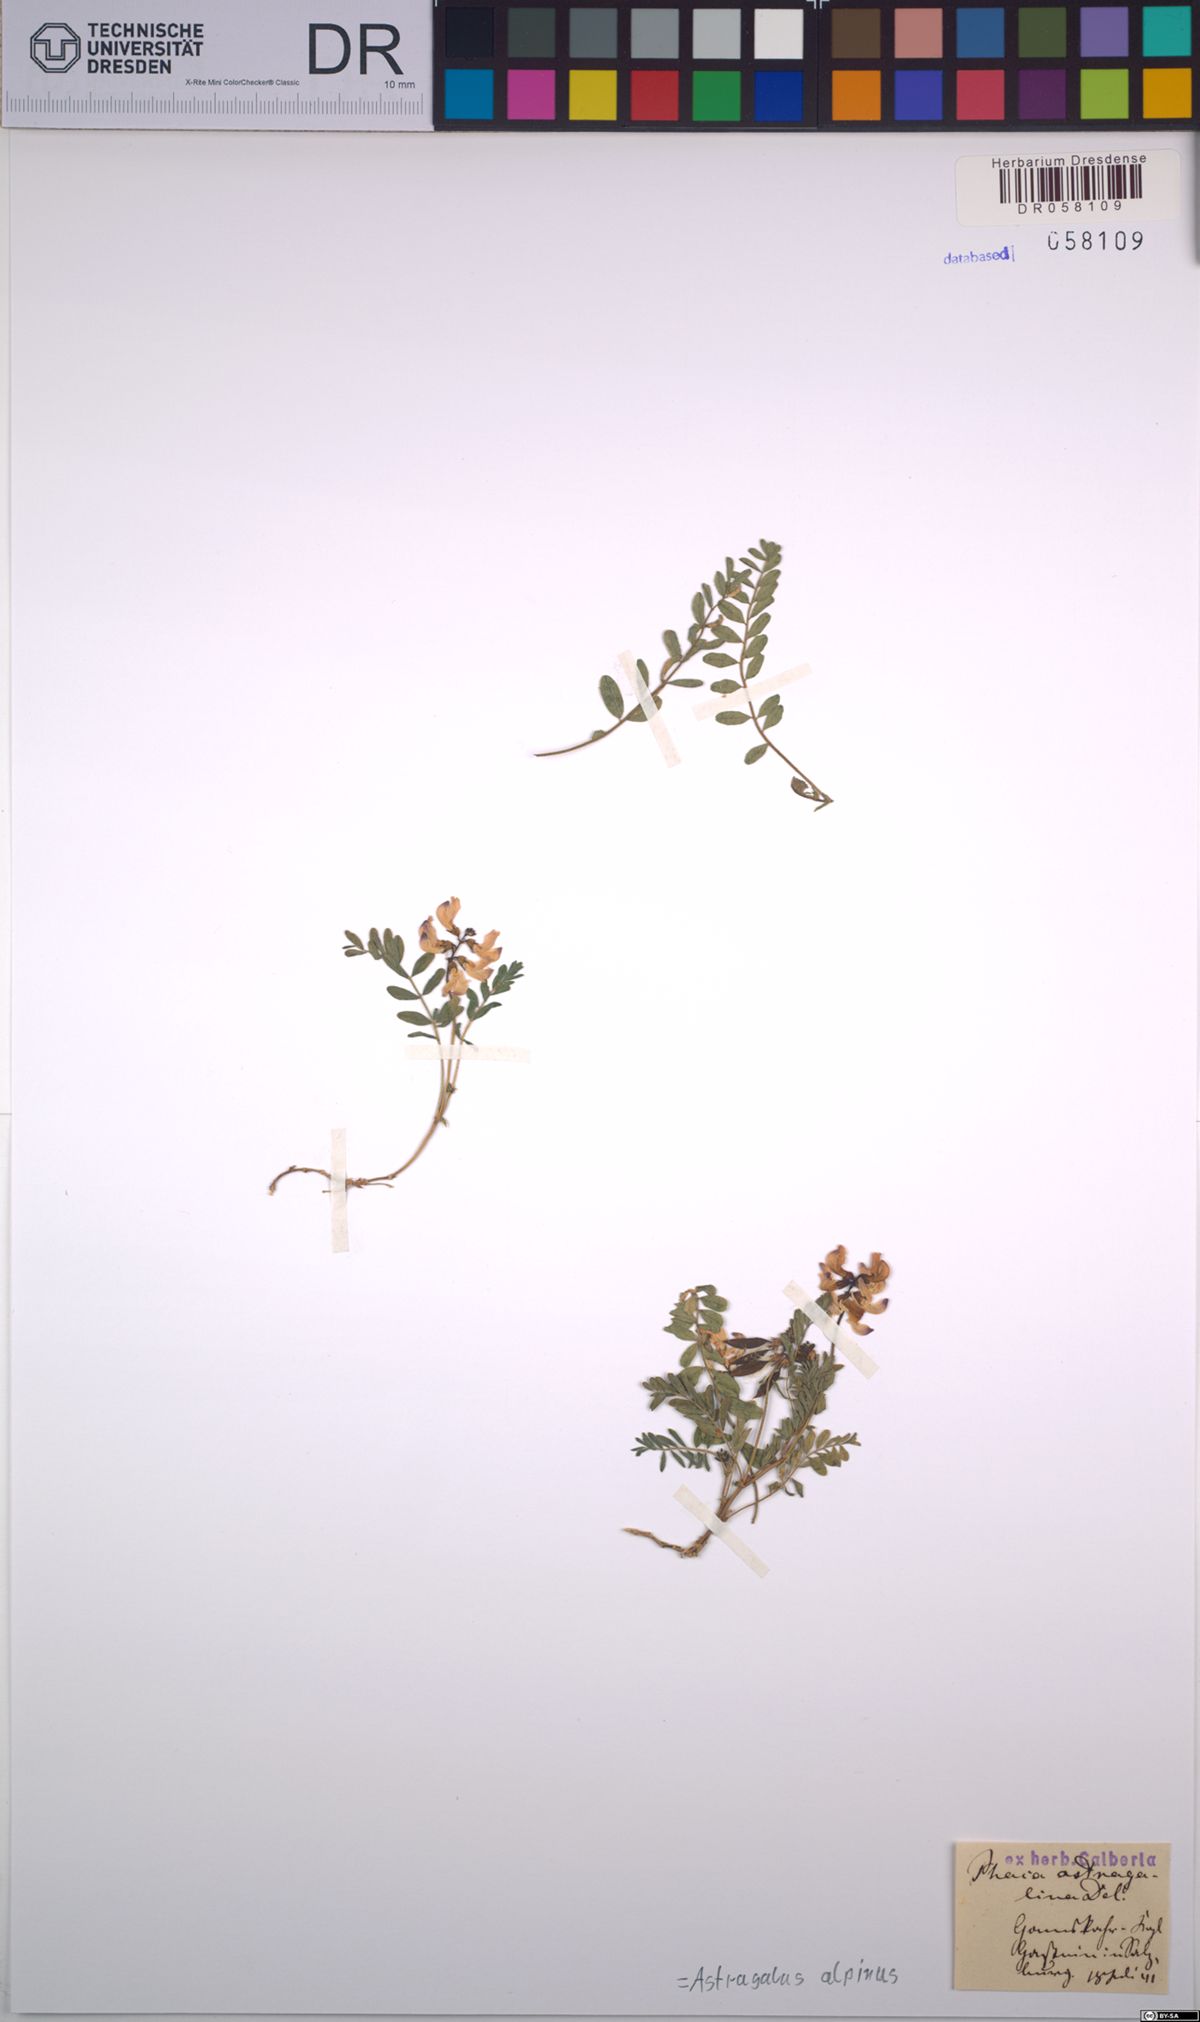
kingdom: Plantae
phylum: Tracheophyta
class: Magnoliopsida
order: Fabales
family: Fabaceae
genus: Astragalus
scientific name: Astragalus alpinus
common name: Alpine milk-vetch
